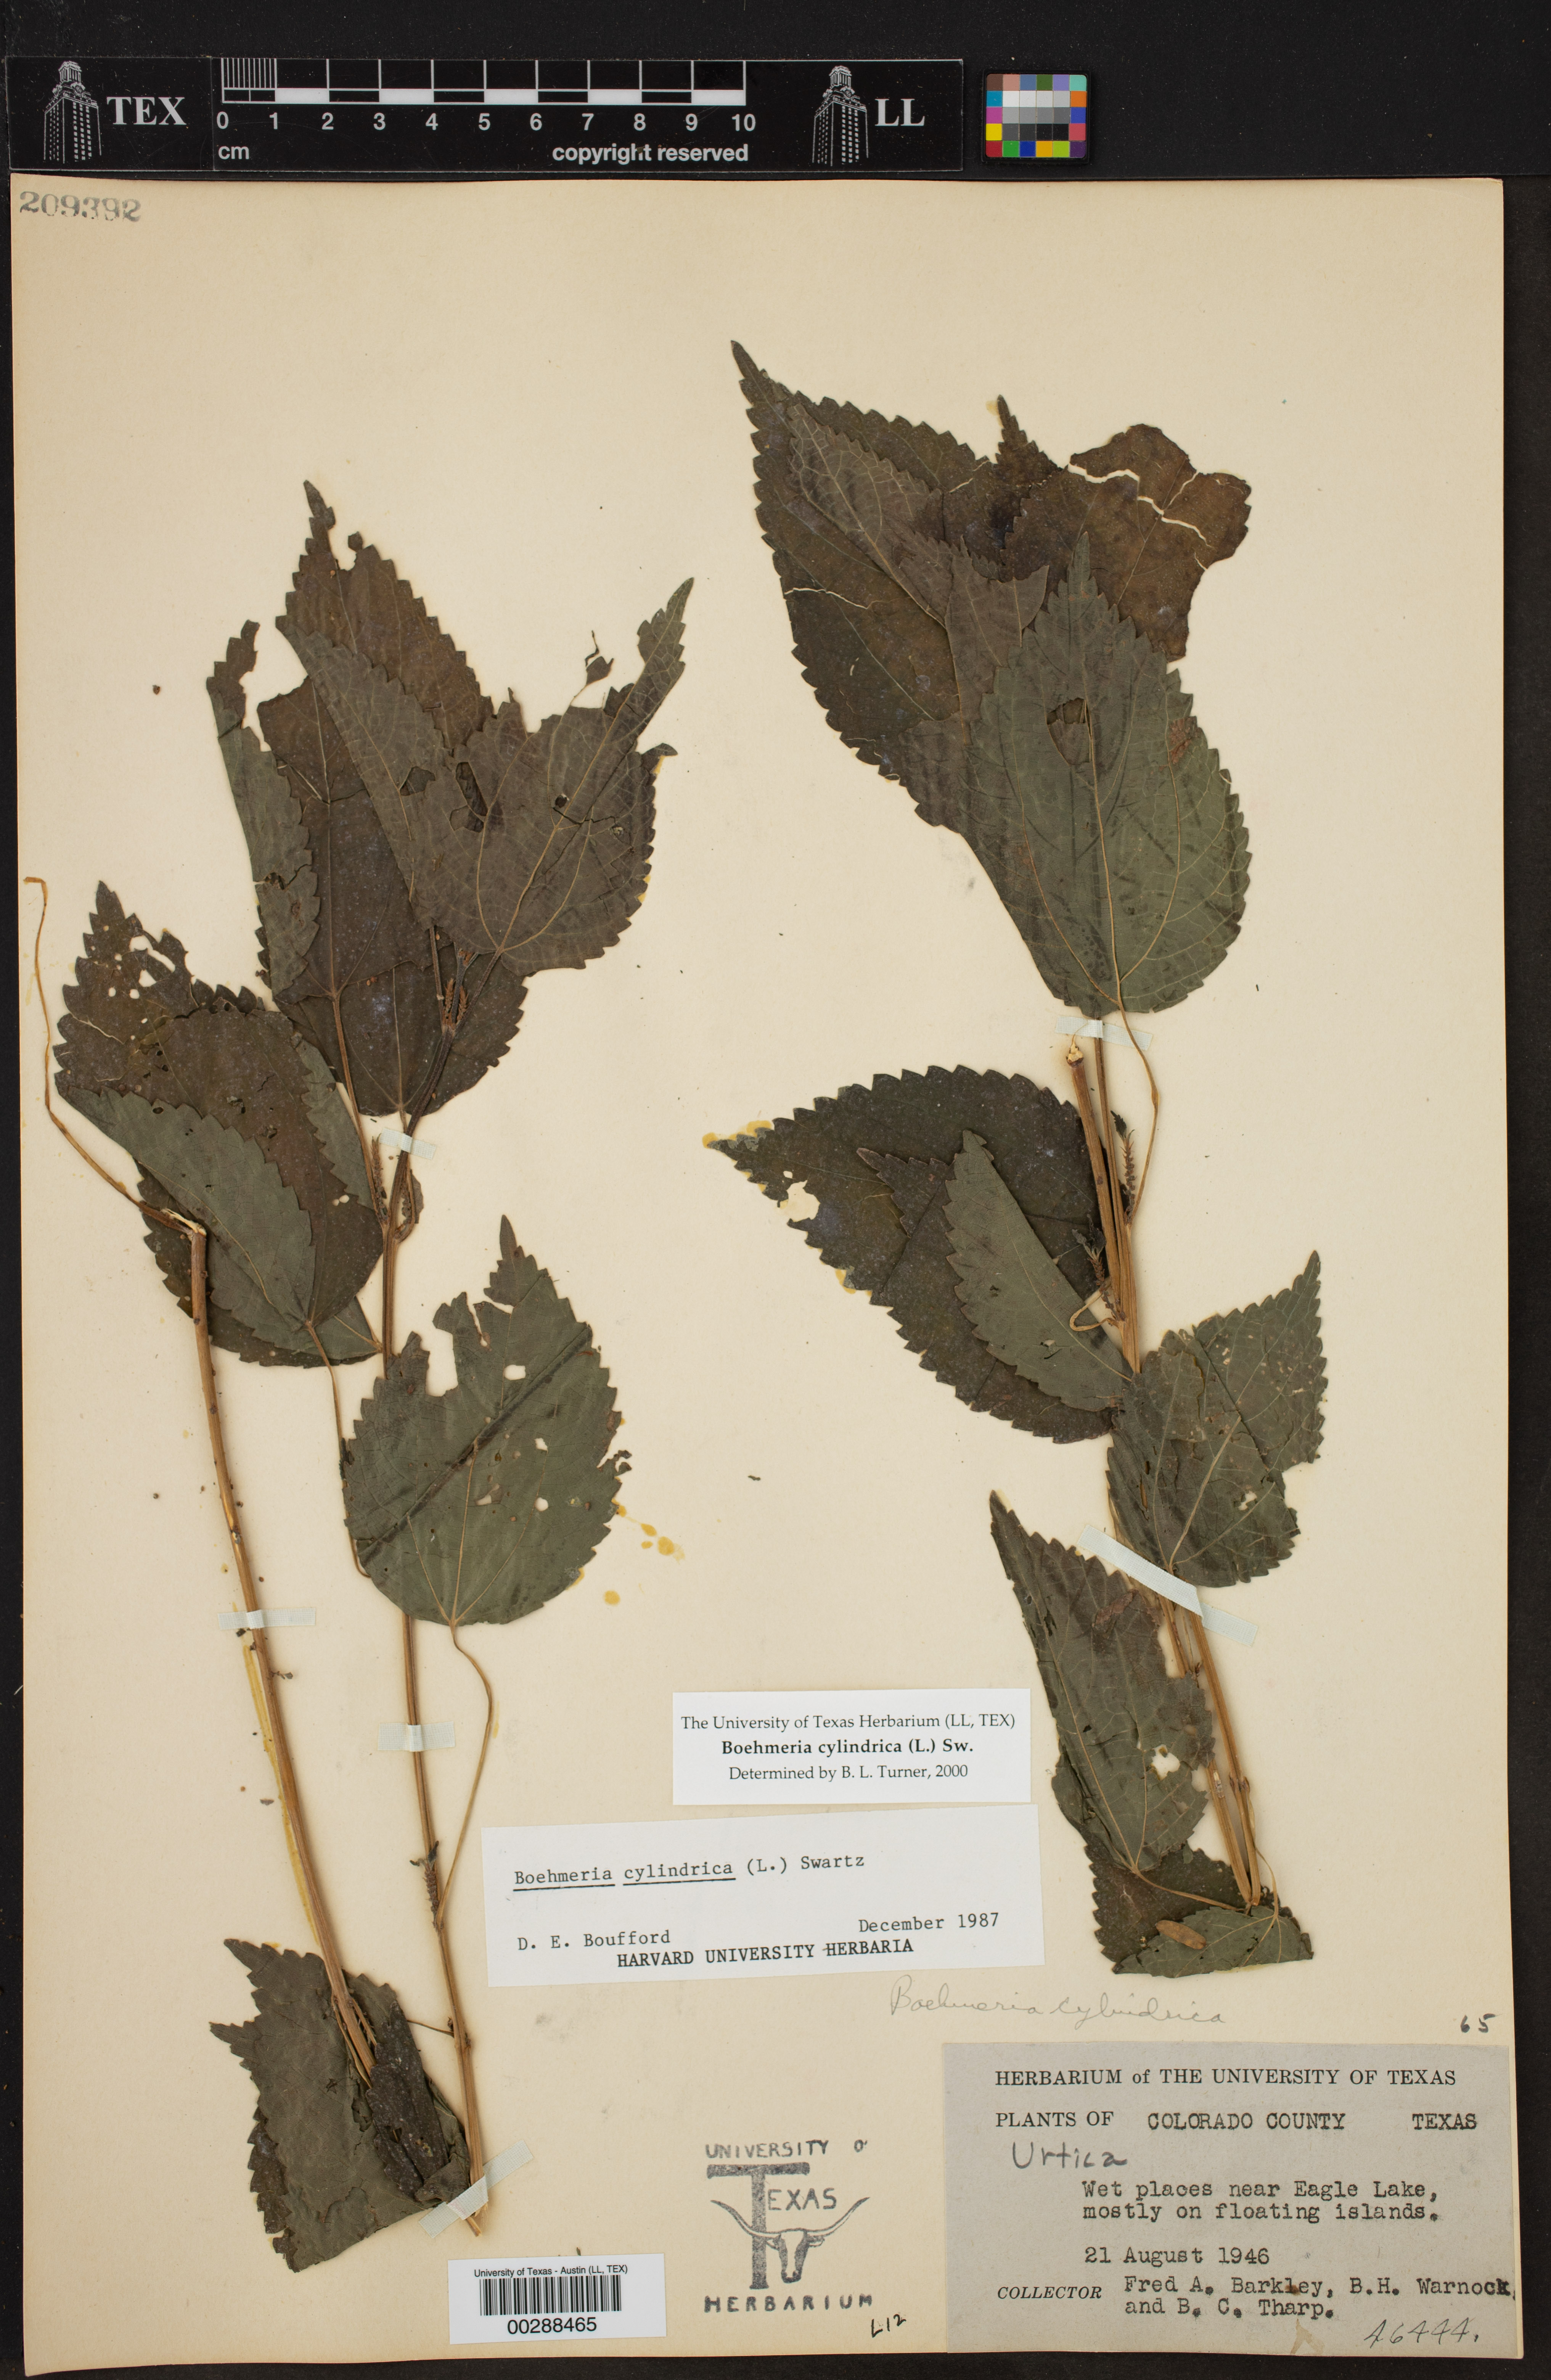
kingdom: Plantae
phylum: Tracheophyta
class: Magnoliopsida
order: Rosales
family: Urticaceae
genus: Boehmeria
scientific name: Boehmeria cylindrica
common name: Bog-hemp
